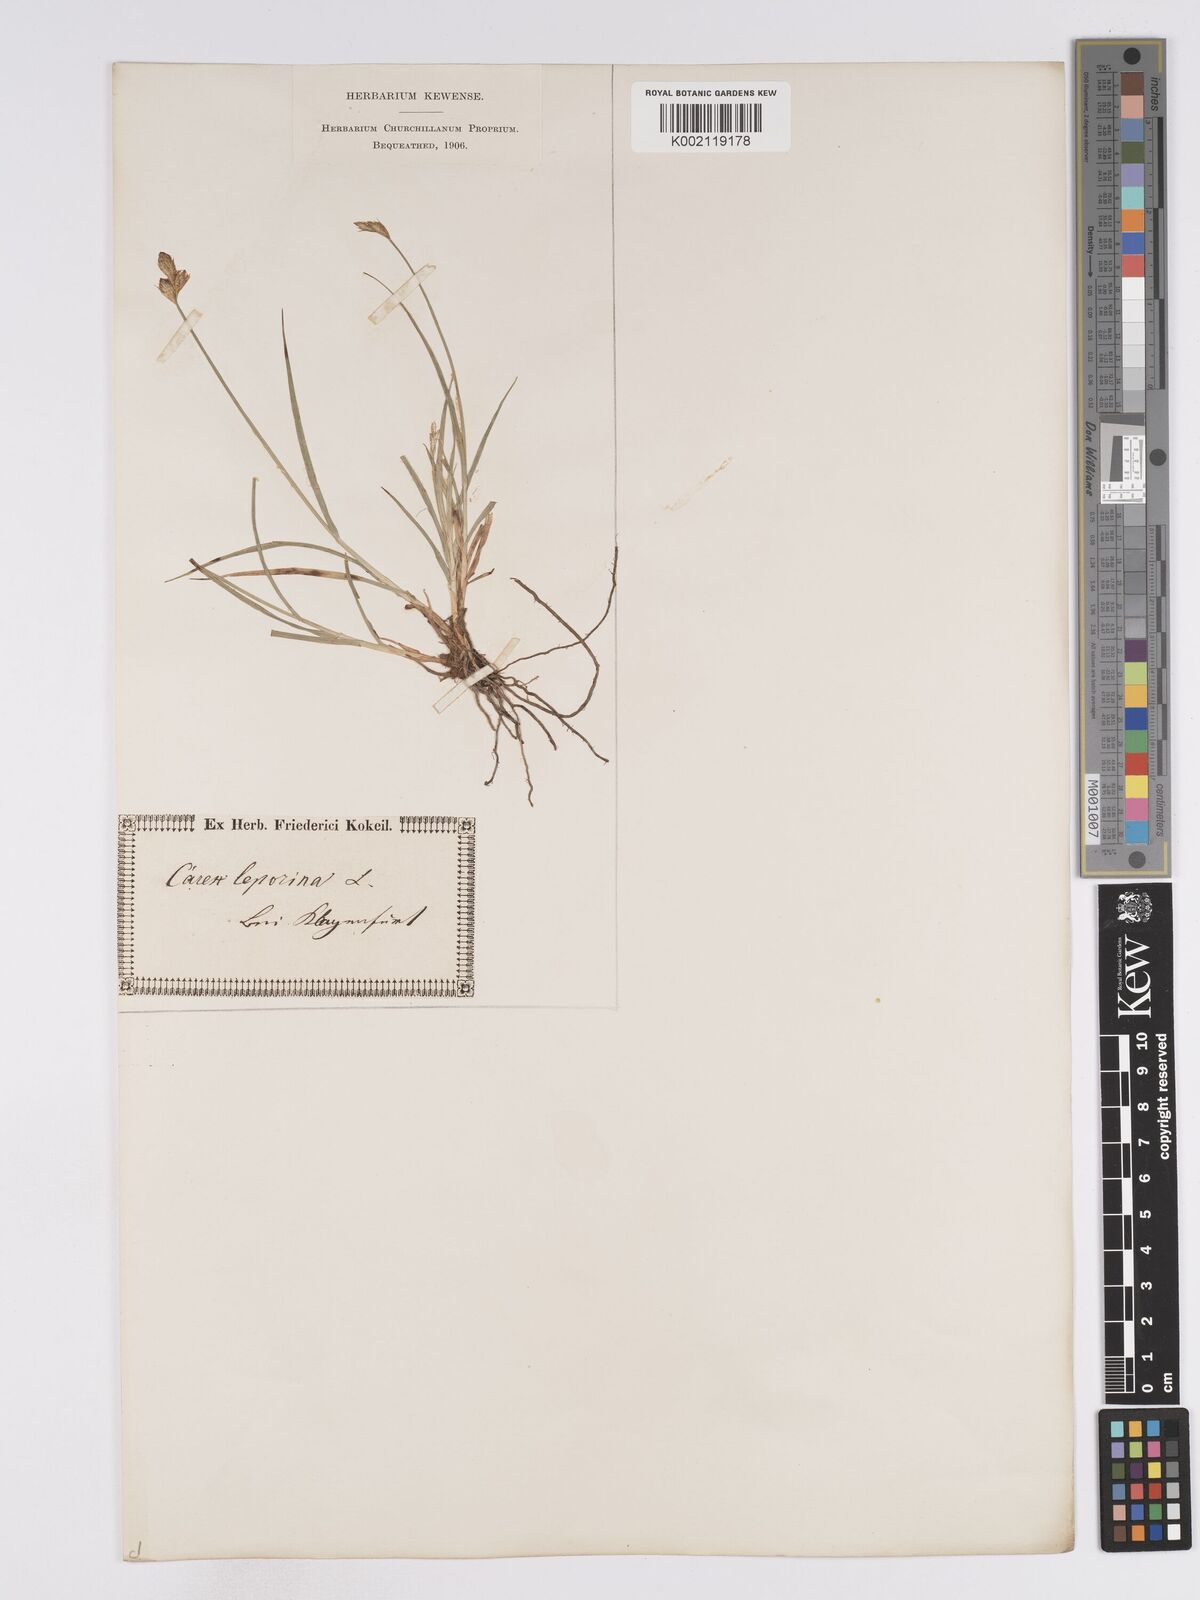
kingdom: Plantae
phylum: Tracheophyta
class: Liliopsida
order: Poales
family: Cyperaceae
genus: Carex
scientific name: Carex leporina
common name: Oval sedge
